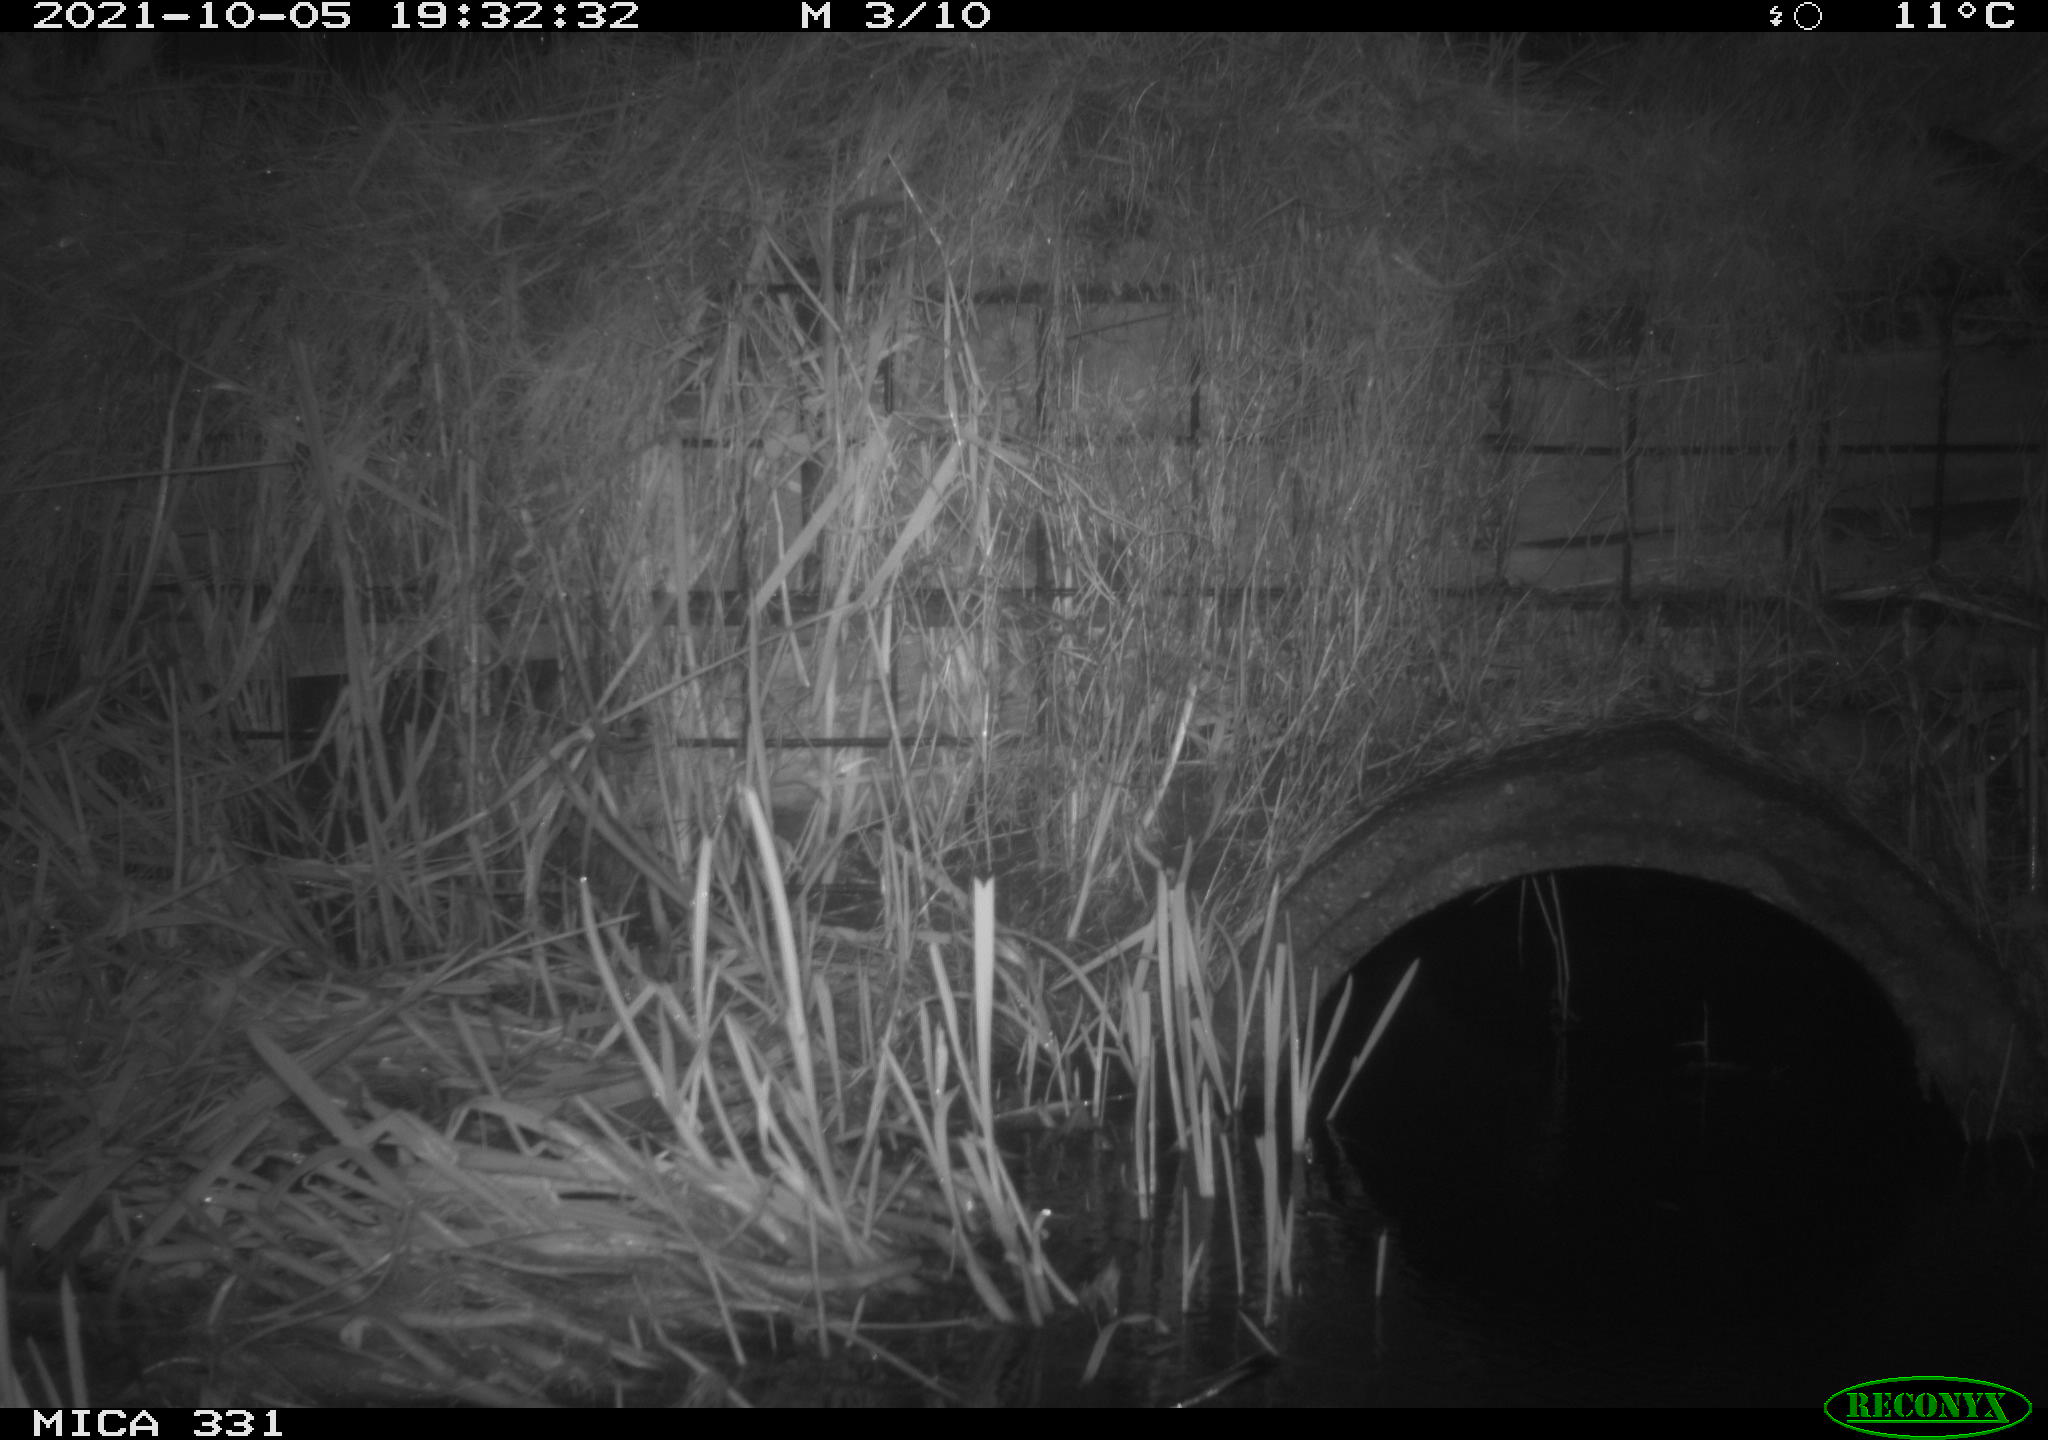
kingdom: Animalia
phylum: Chordata
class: Mammalia
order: Rodentia
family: Muridae
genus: Rattus
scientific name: Rattus norvegicus
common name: Brown rat
